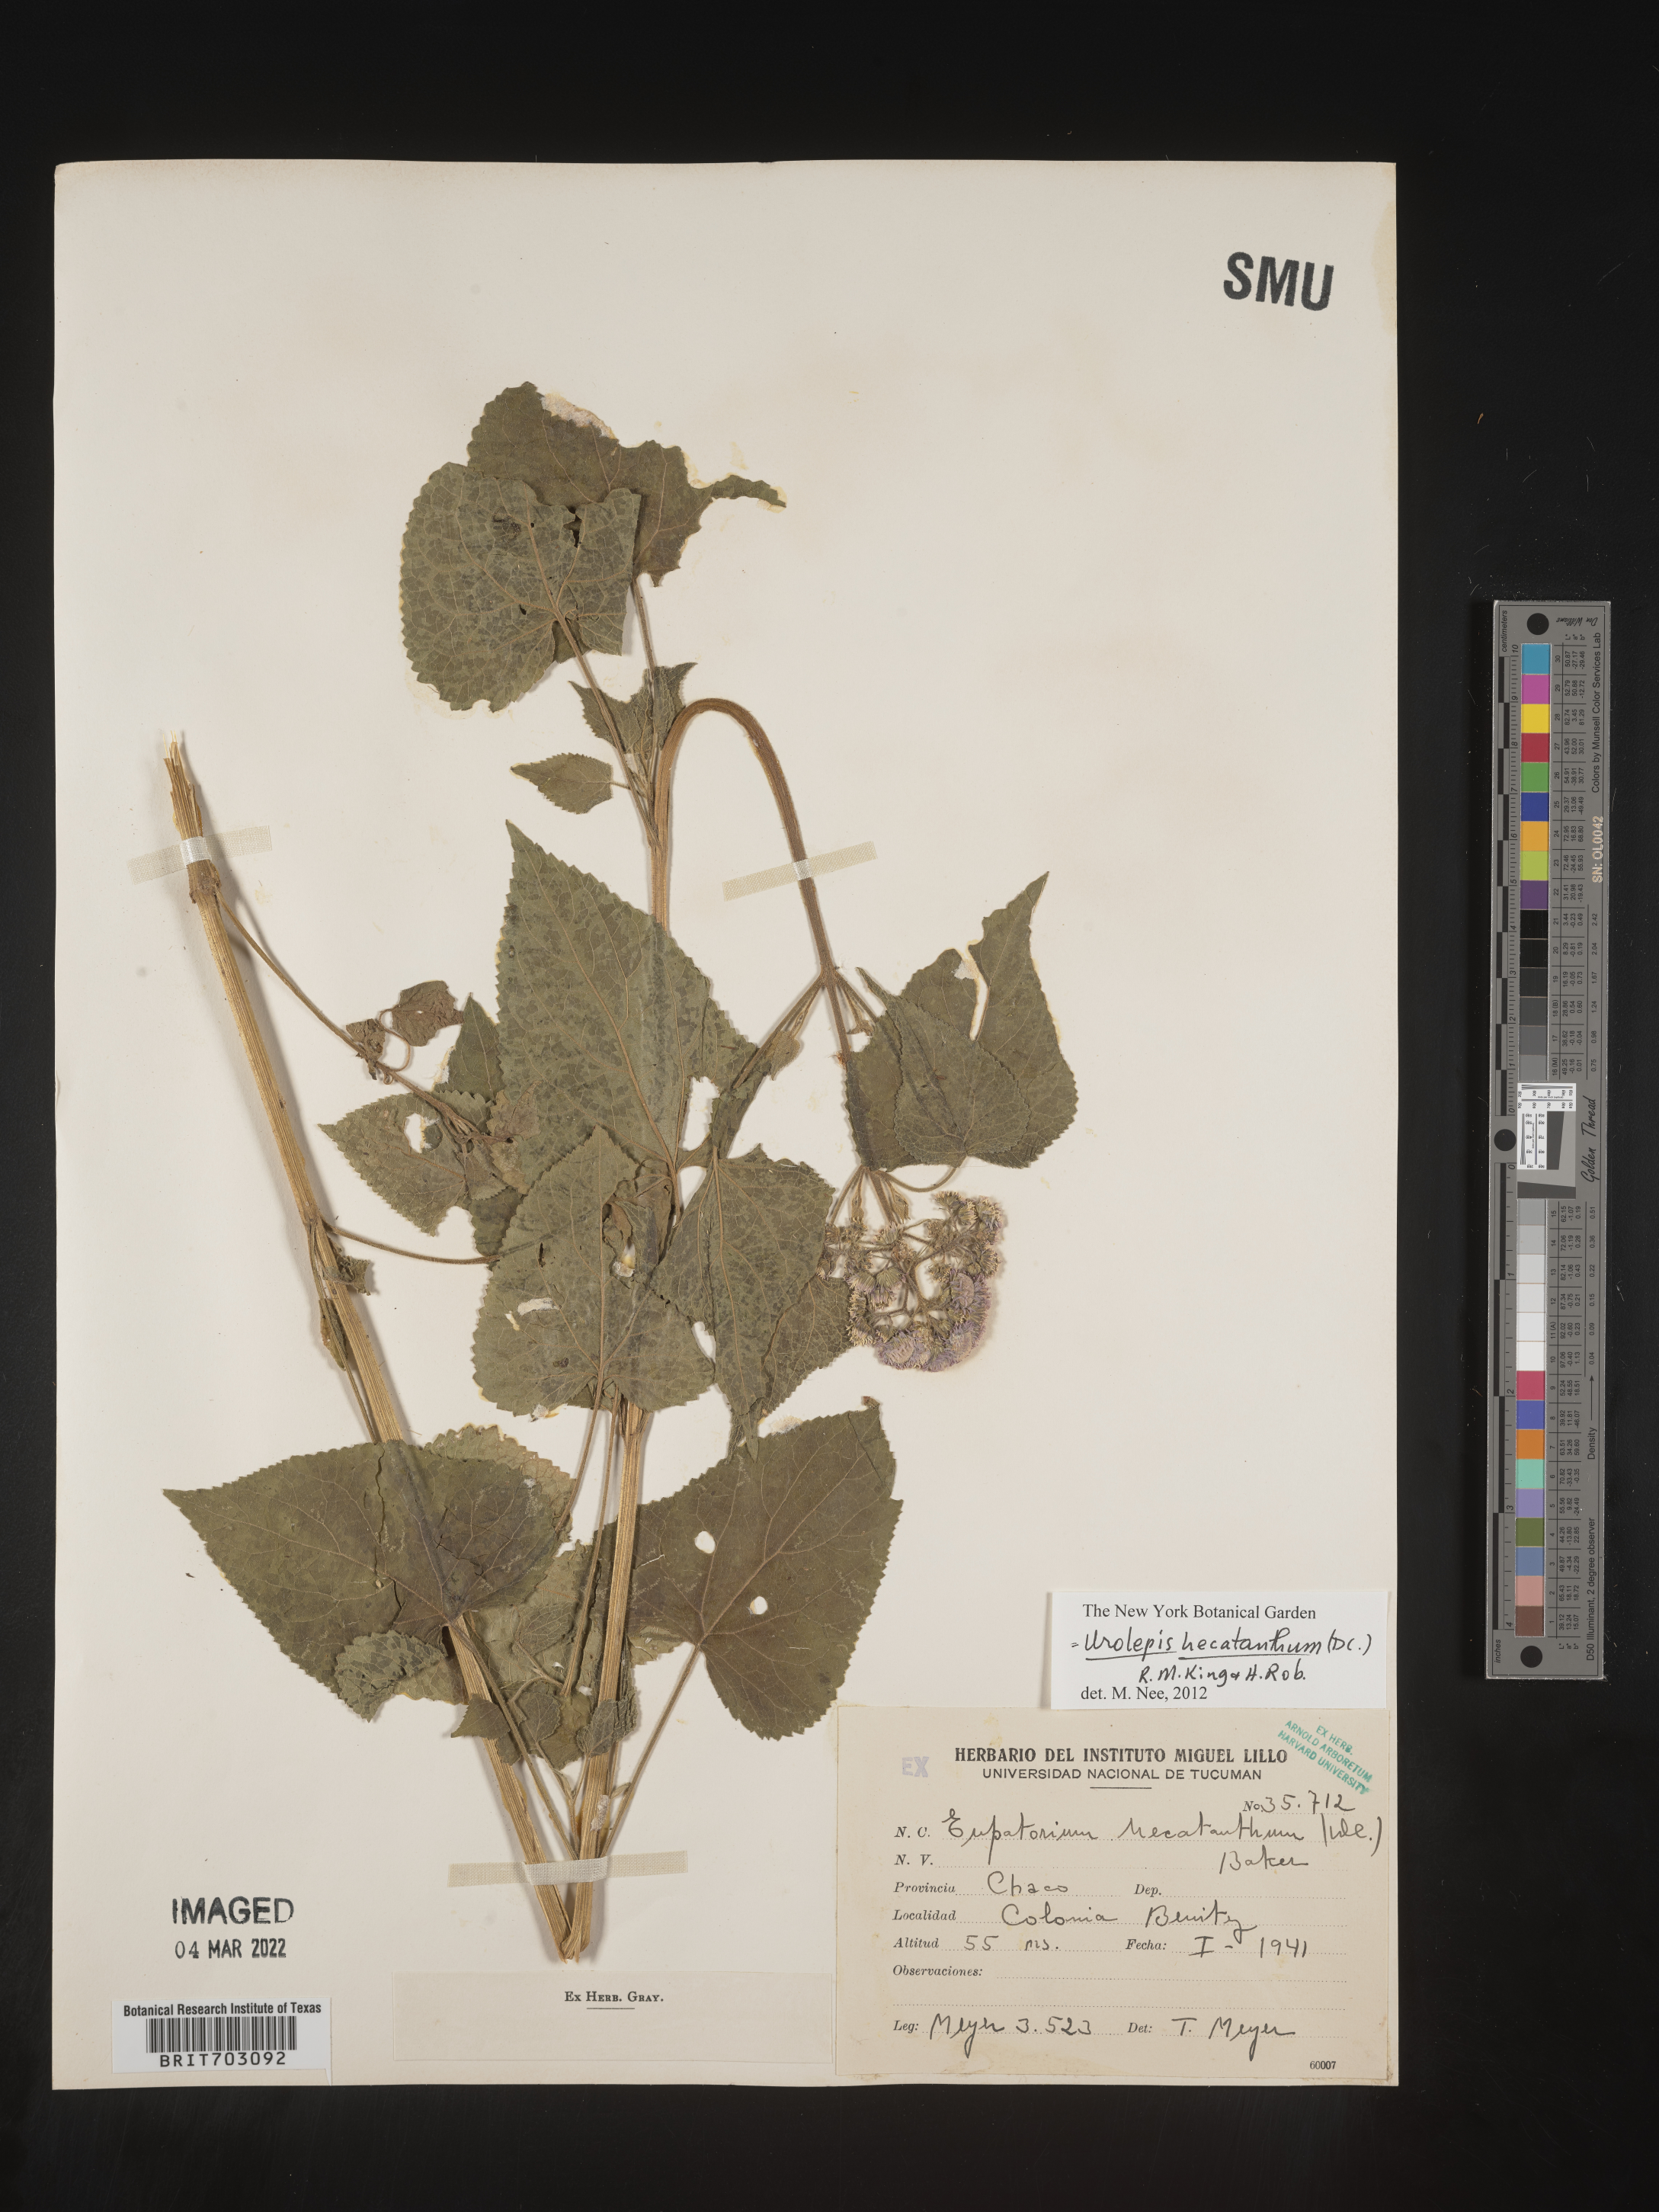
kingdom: Plantae
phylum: Tracheophyta
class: Magnoliopsida
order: Asterales
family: Asteraceae
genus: Eupatorium
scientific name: Eupatorium
